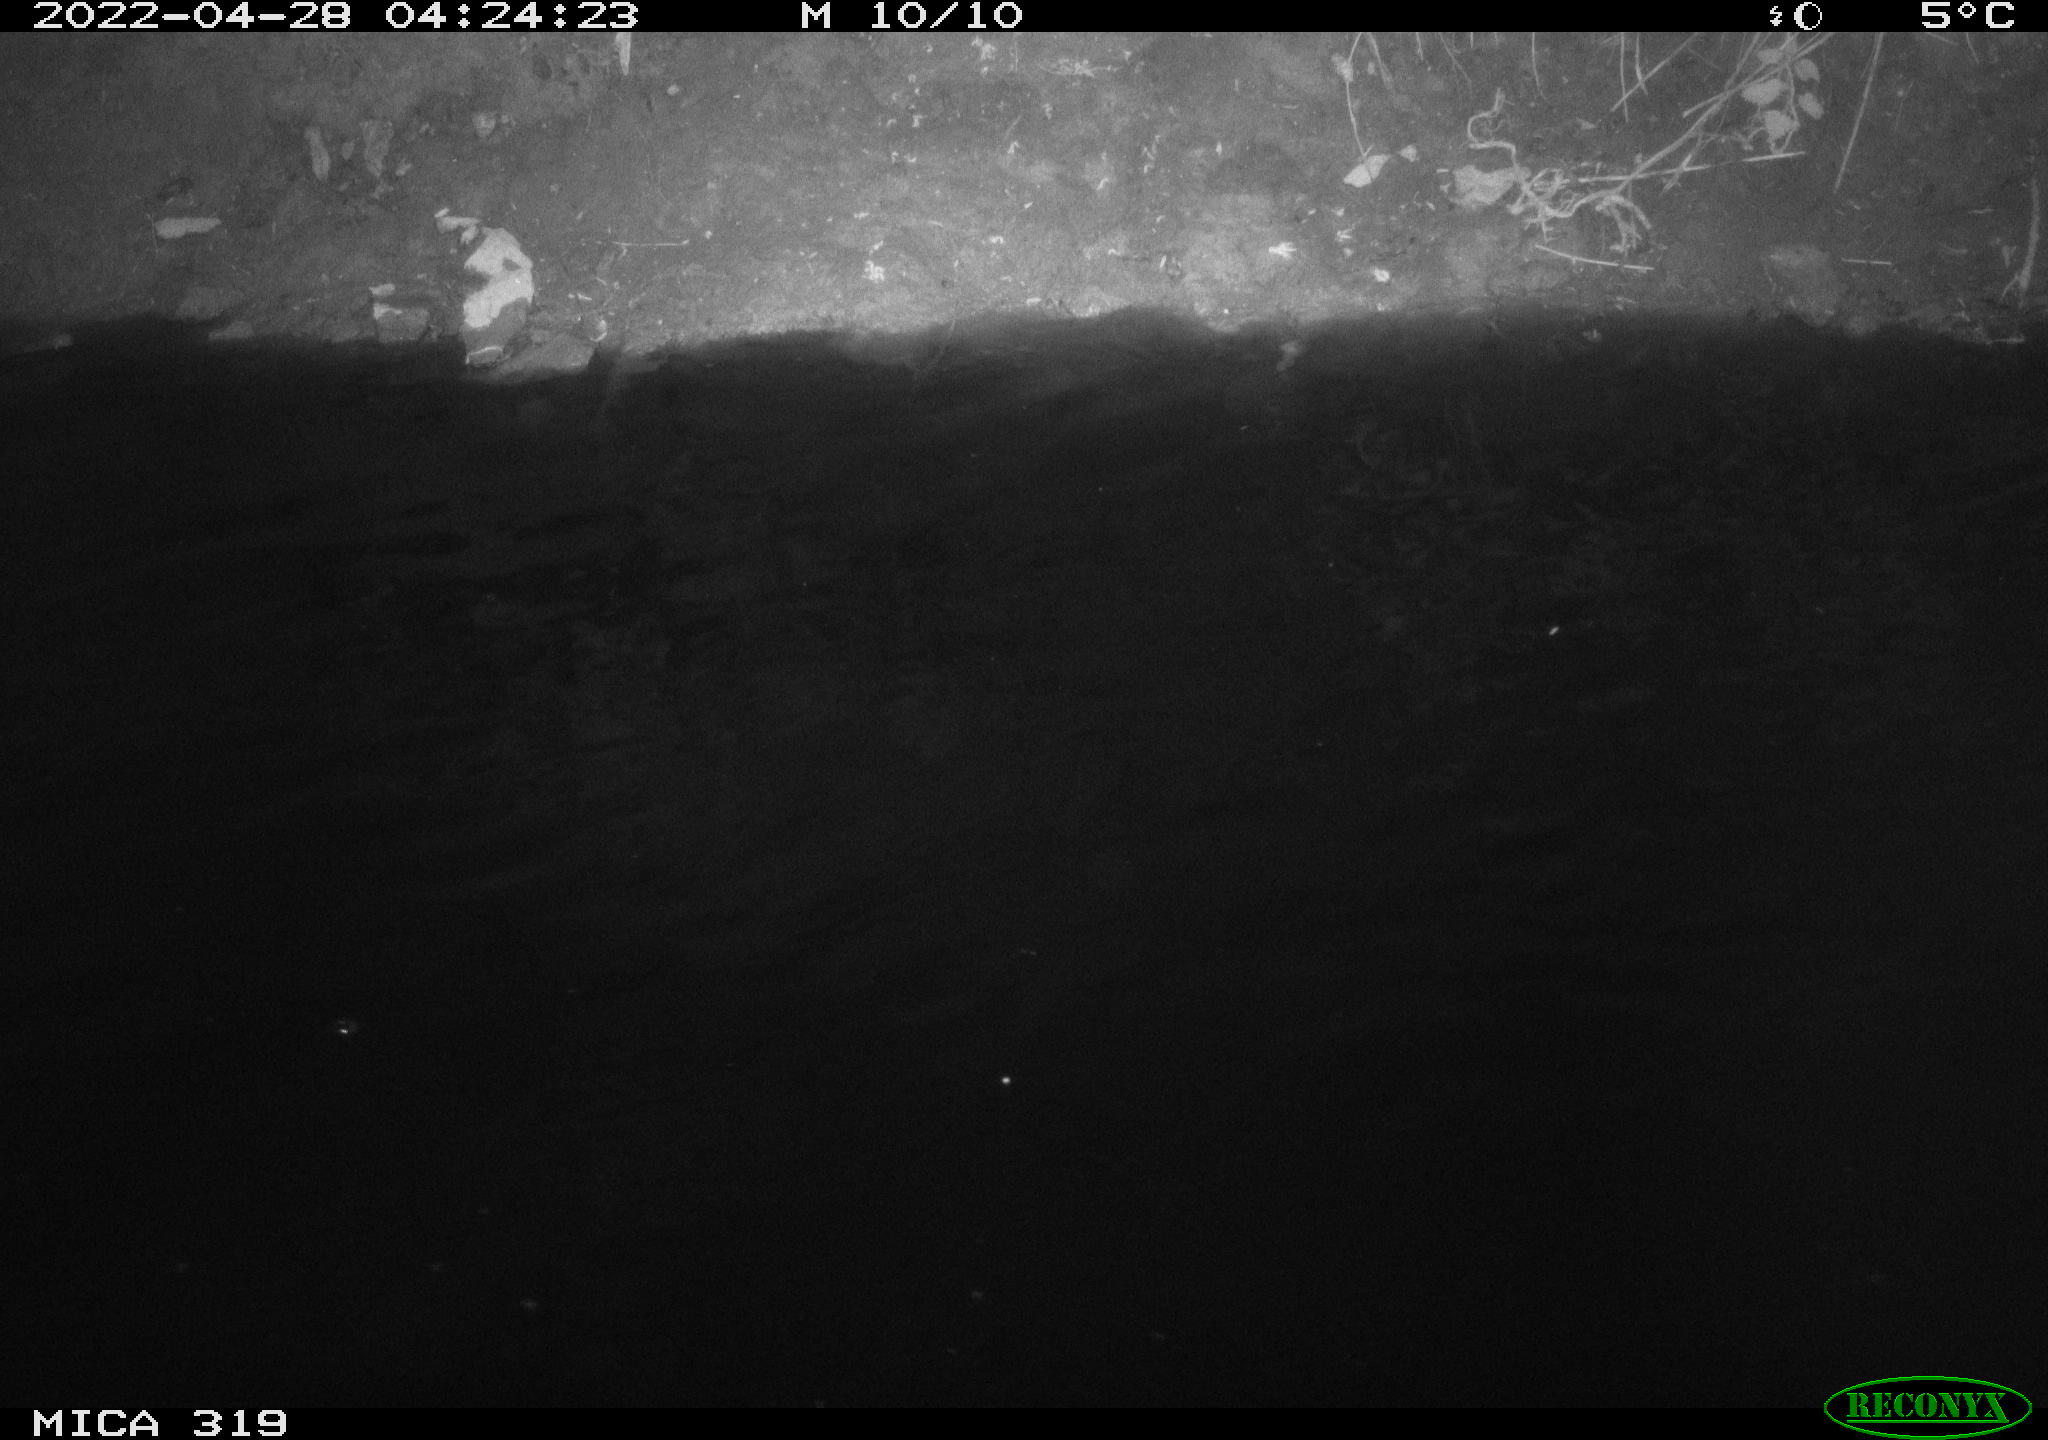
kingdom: Animalia
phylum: Chordata
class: Aves
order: Anseriformes
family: Anatidae
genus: Mareca
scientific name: Mareca strepera
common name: Gadwall
